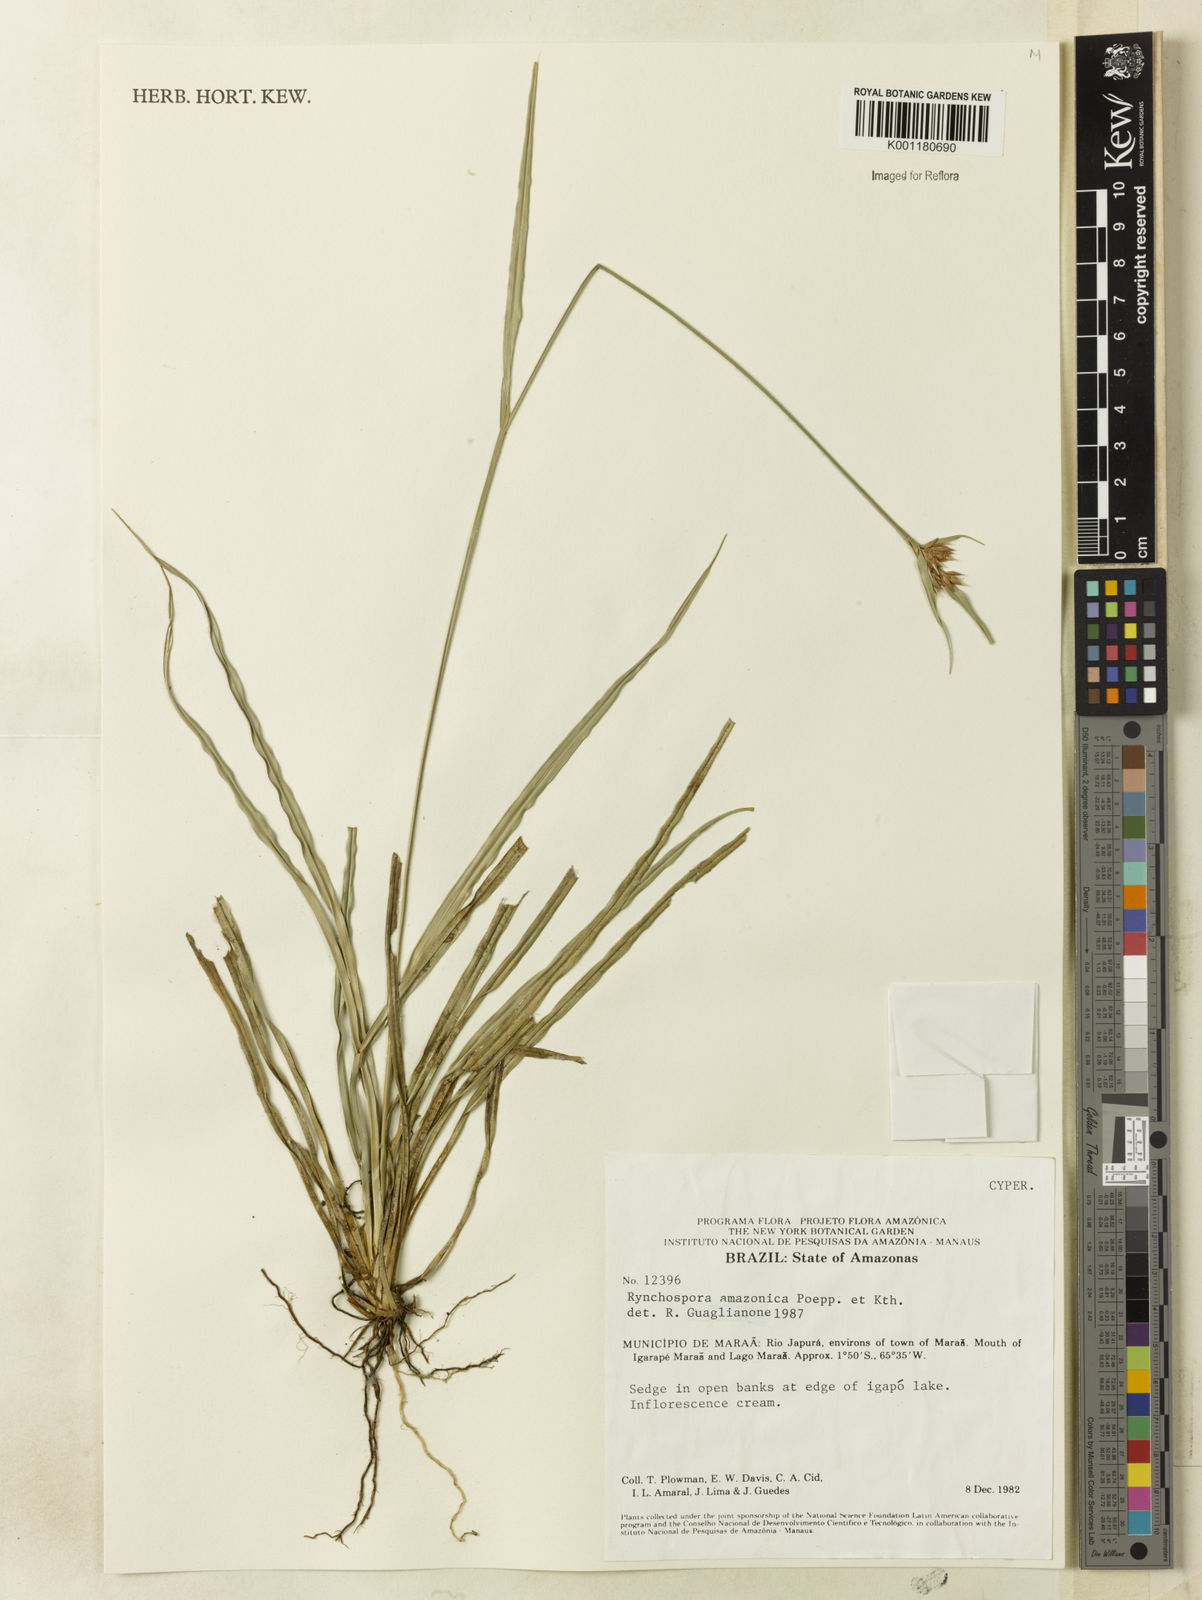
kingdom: Plantae
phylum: Tracheophyta
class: Liliopsida
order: Poales
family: Cyperaceae
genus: Rhynchospora
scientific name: Rhynchospora amazonica
